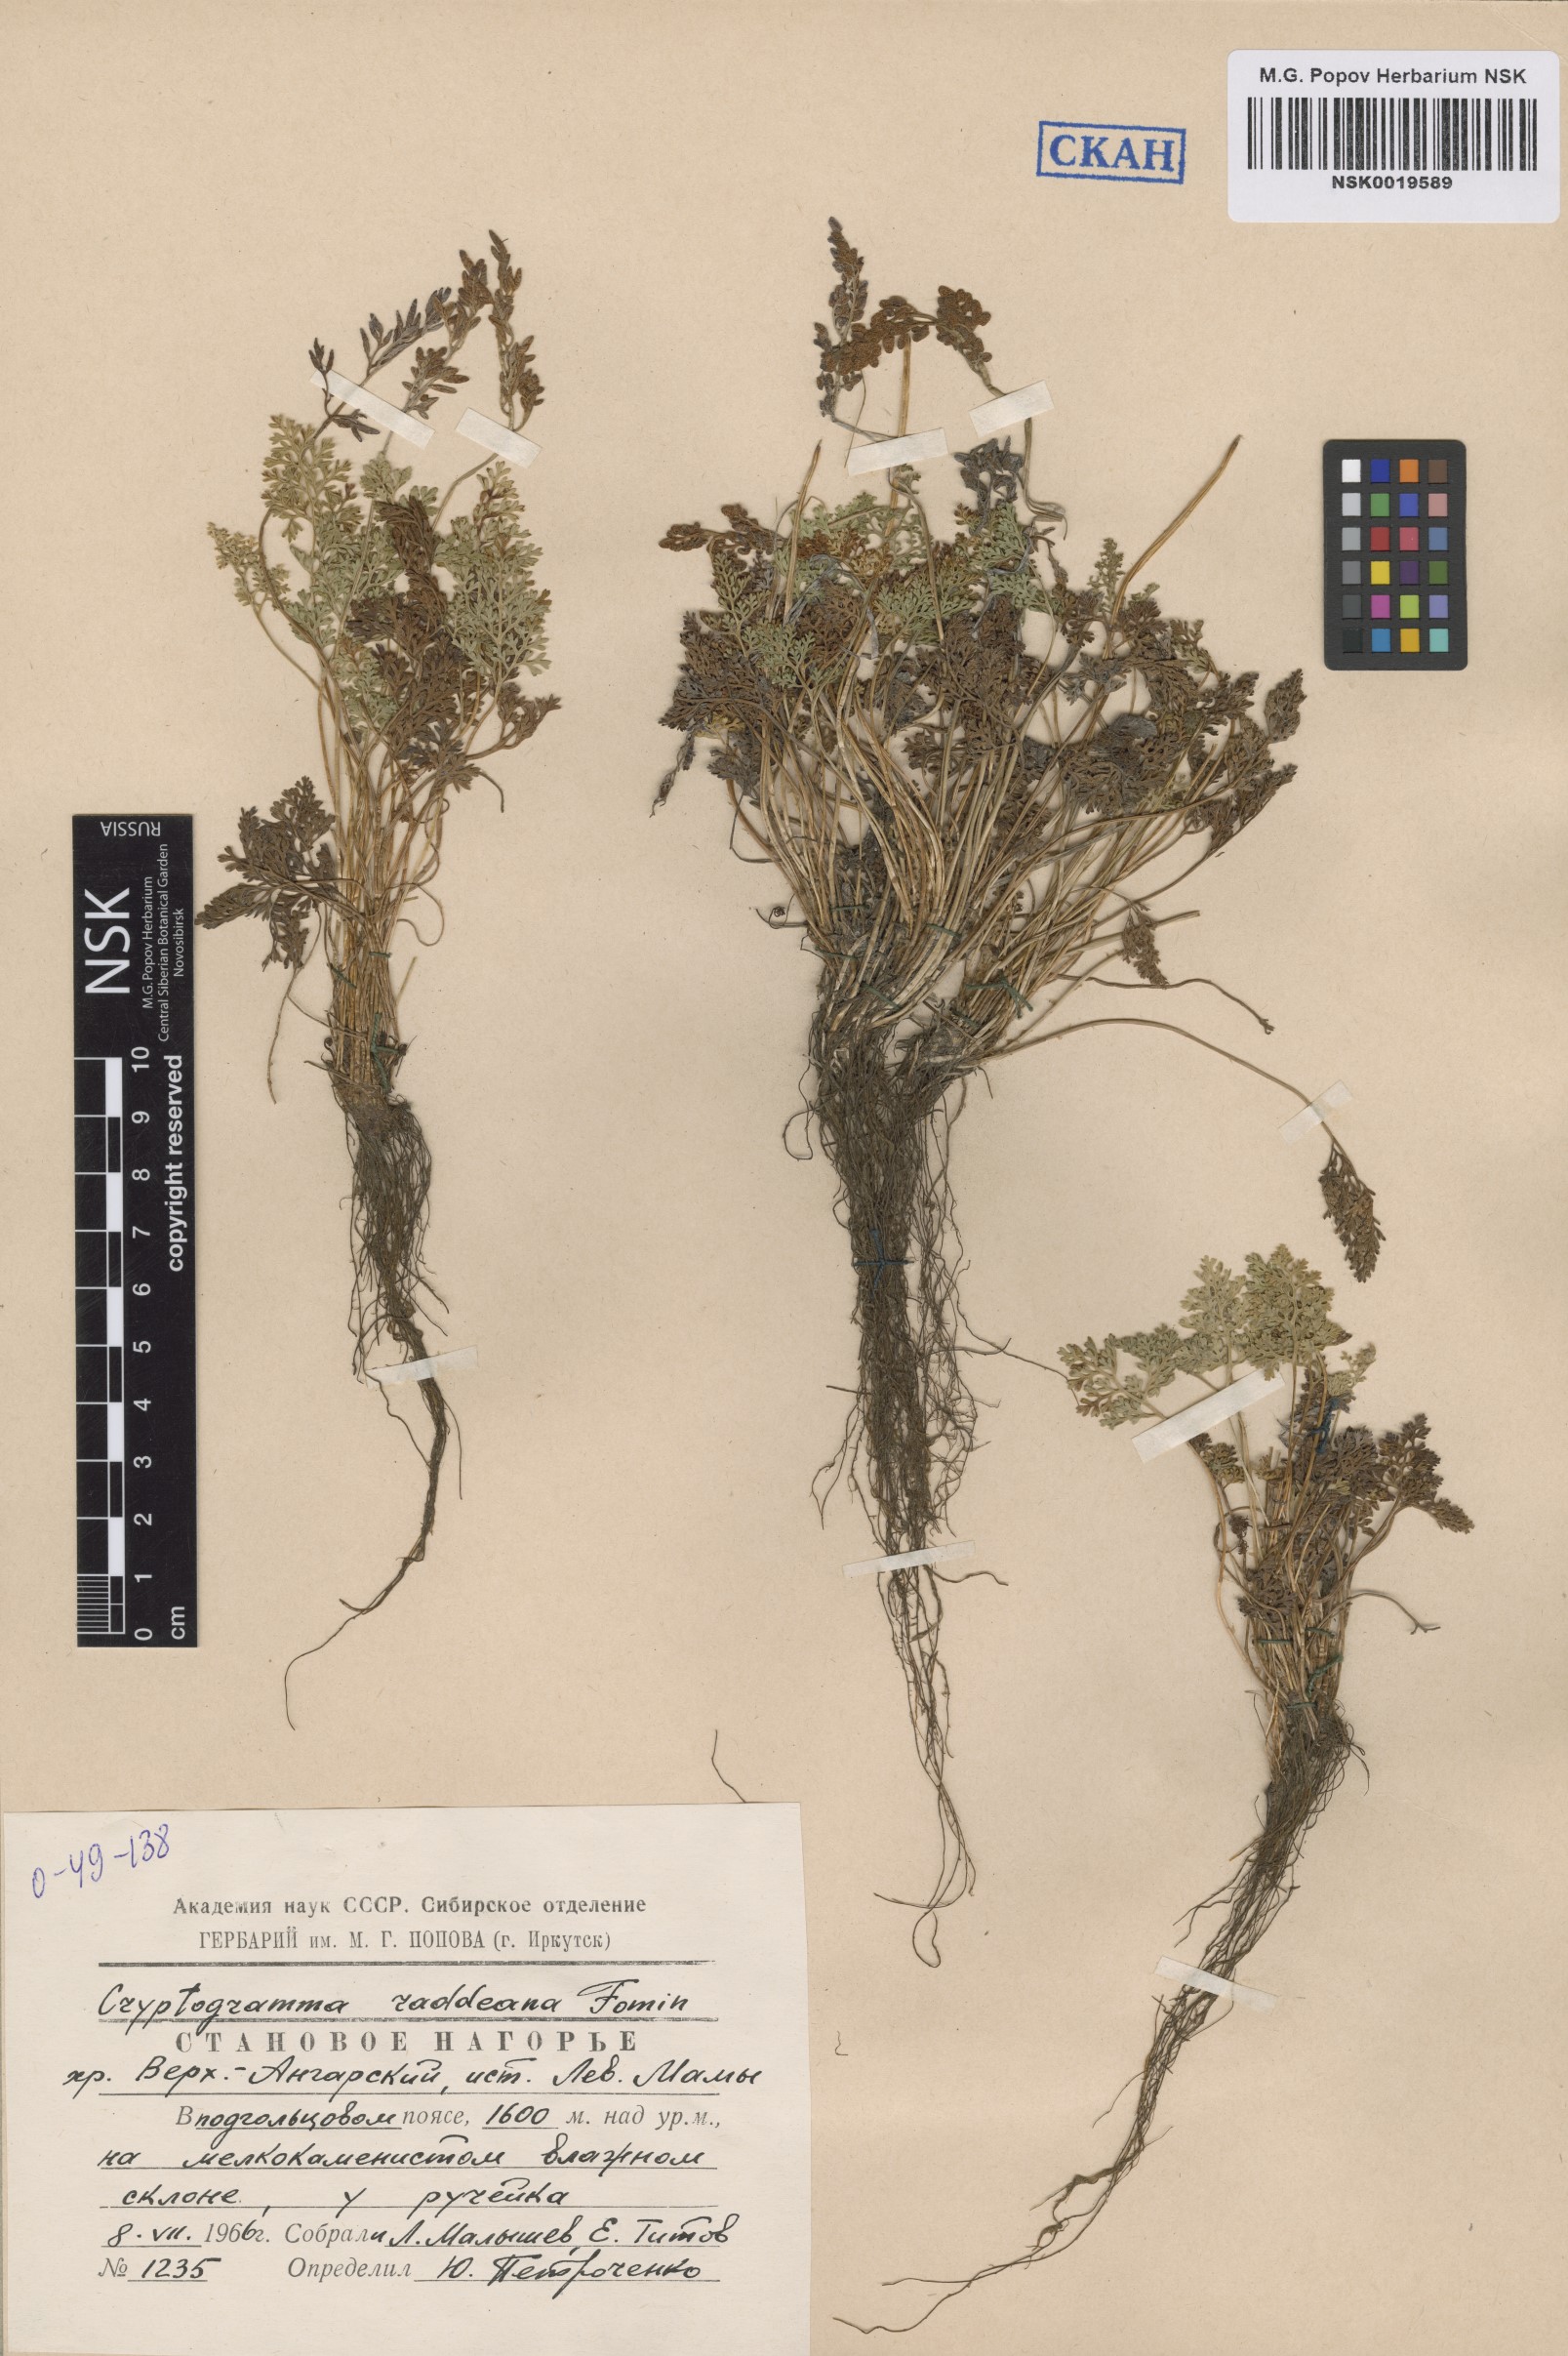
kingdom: Plantae
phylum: Tracheophyta
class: Polypodiopsida
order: Polypodiales
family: Pteridaceae
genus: Cryptogramma
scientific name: Cryptogramma brunoniana
